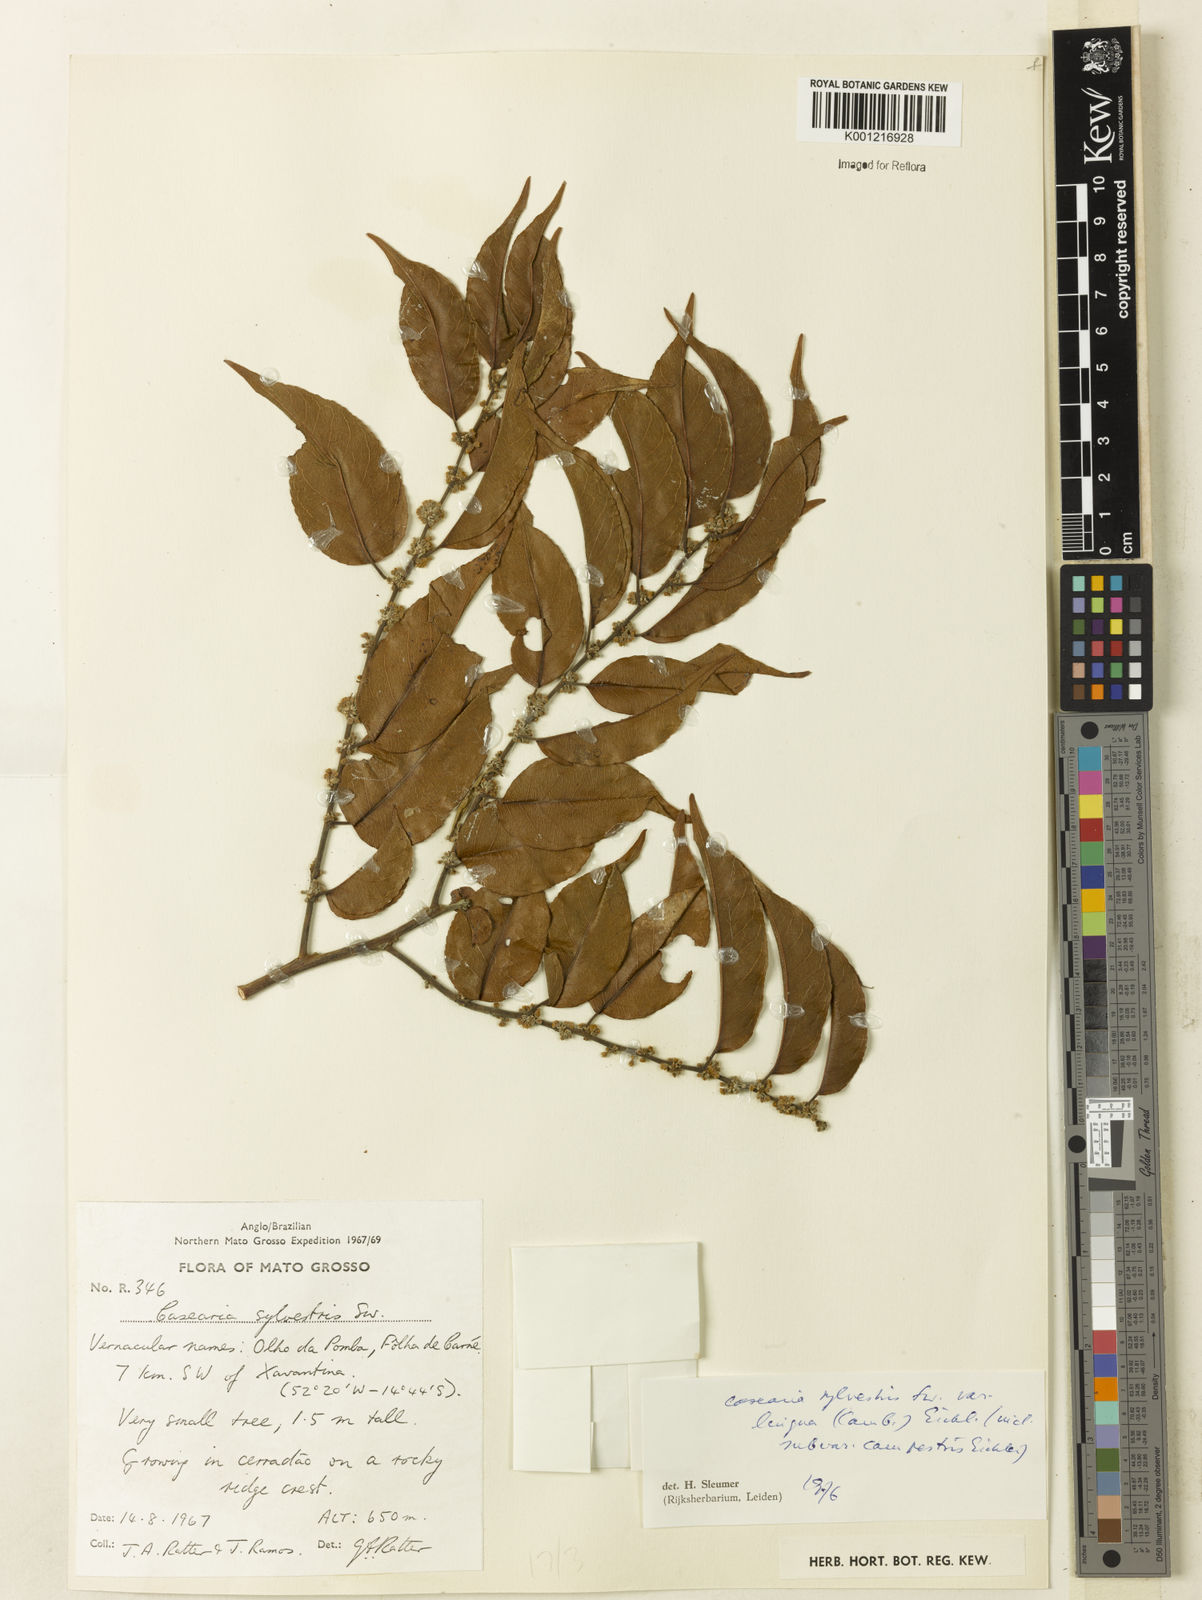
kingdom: Plantae
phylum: Tracheophyta
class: Magnoliopsida
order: Malpighiales
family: Salicaceae
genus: Casearia
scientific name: Casearia sylvestris
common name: Wild sage
